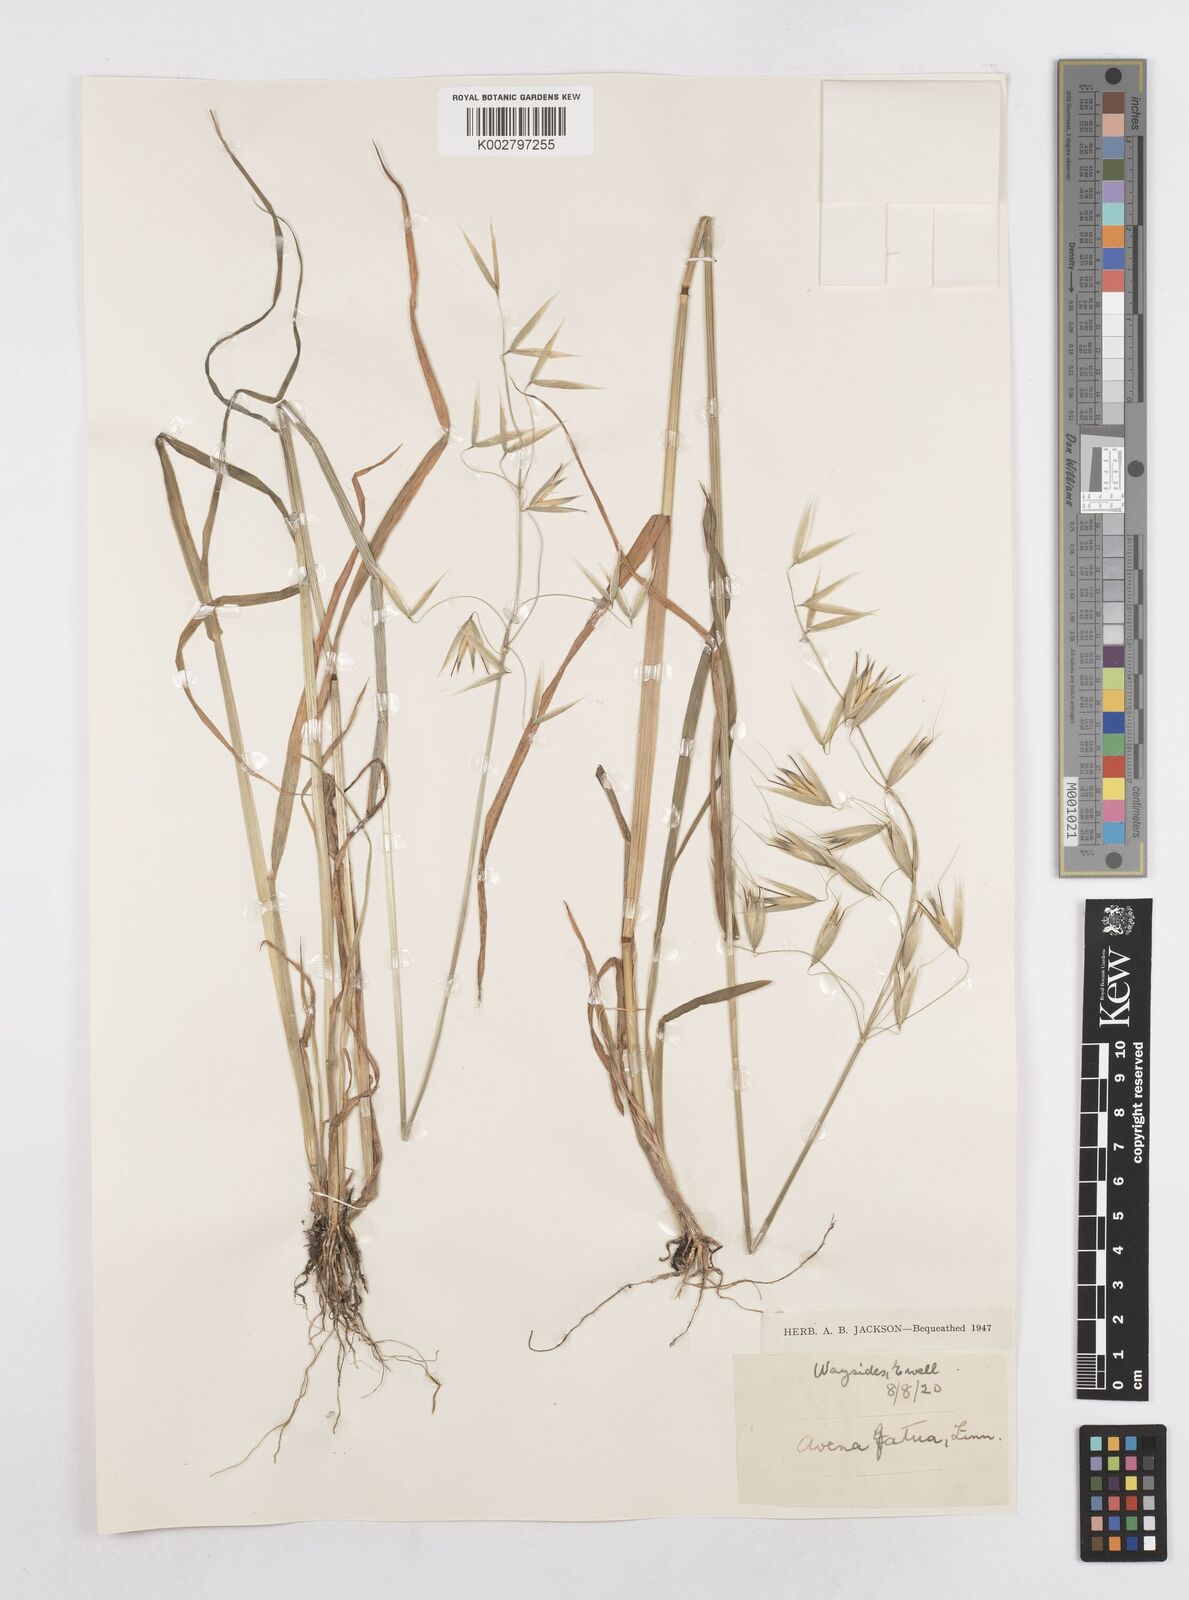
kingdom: Plantae
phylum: Tracheophyta
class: Liliopsida
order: Poales
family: Poaceae
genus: Avena
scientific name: Avena fatua
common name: Wild oat
